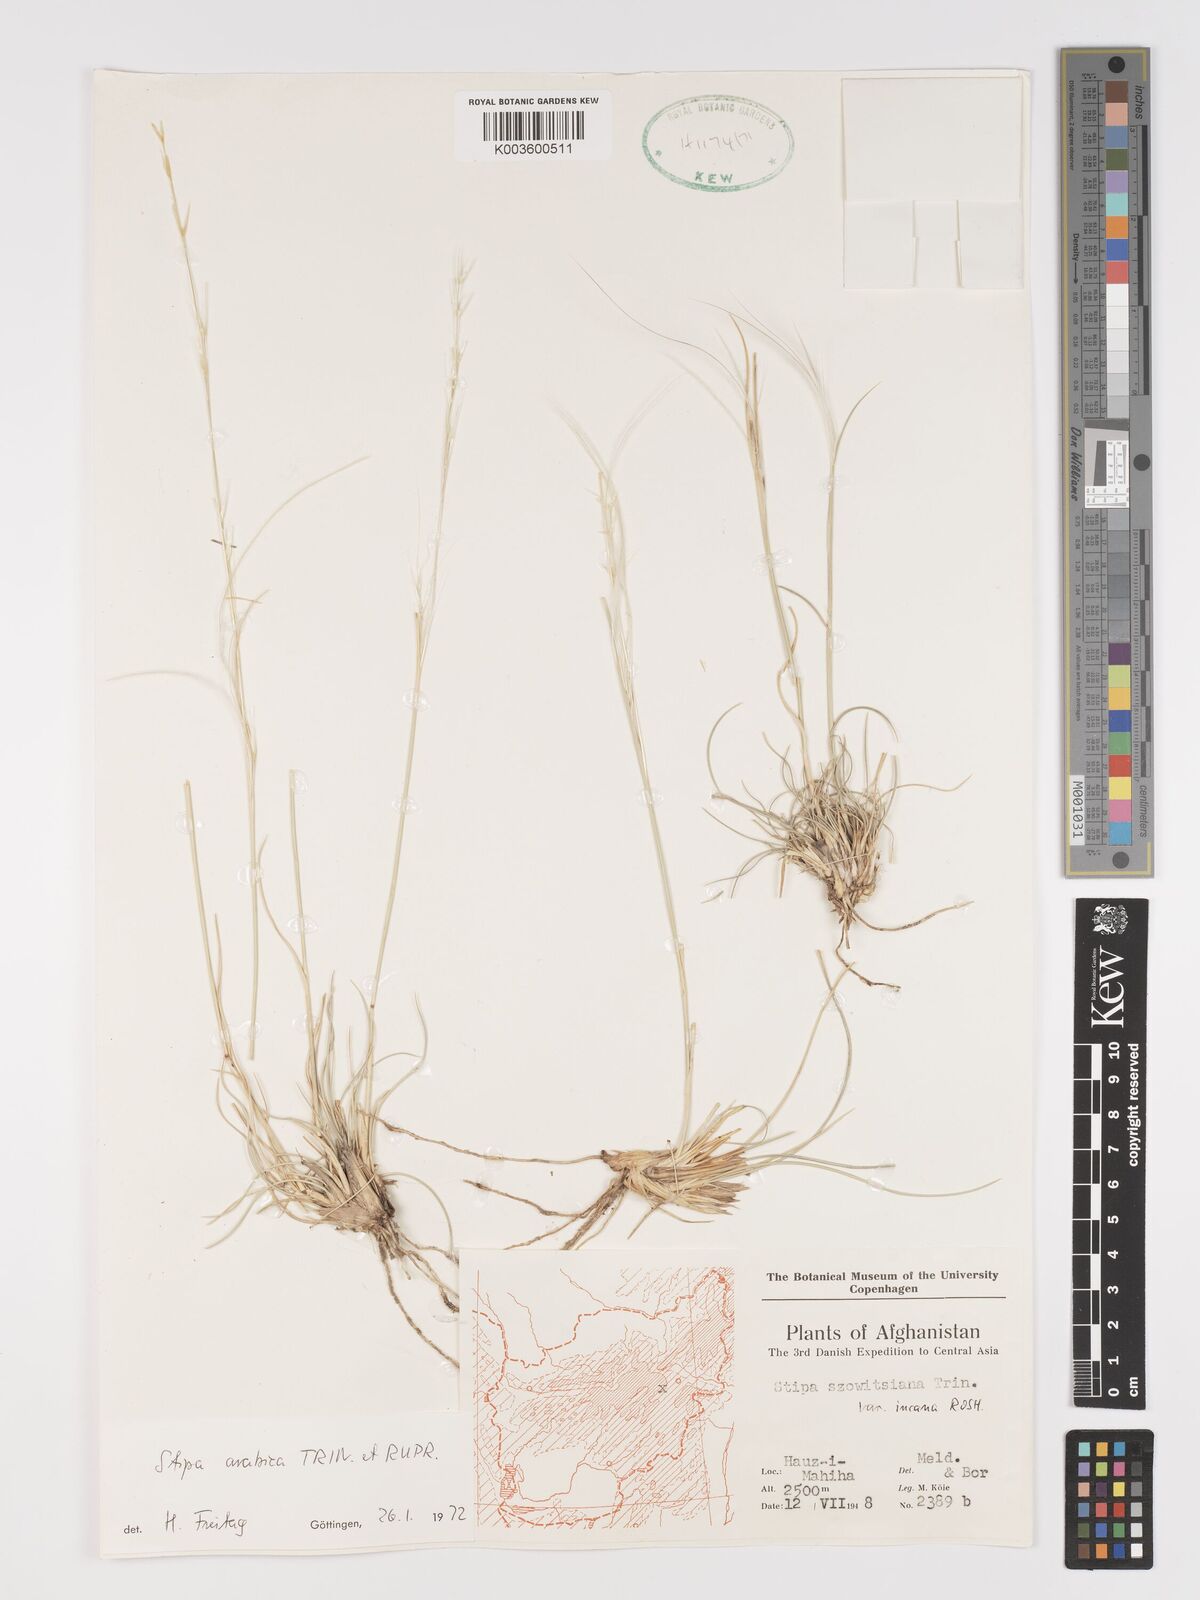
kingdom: Plantae
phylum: Tracheophyta
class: Liliopsida
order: Poales
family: Poaceae
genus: Stipa
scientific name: Stipa arabica
